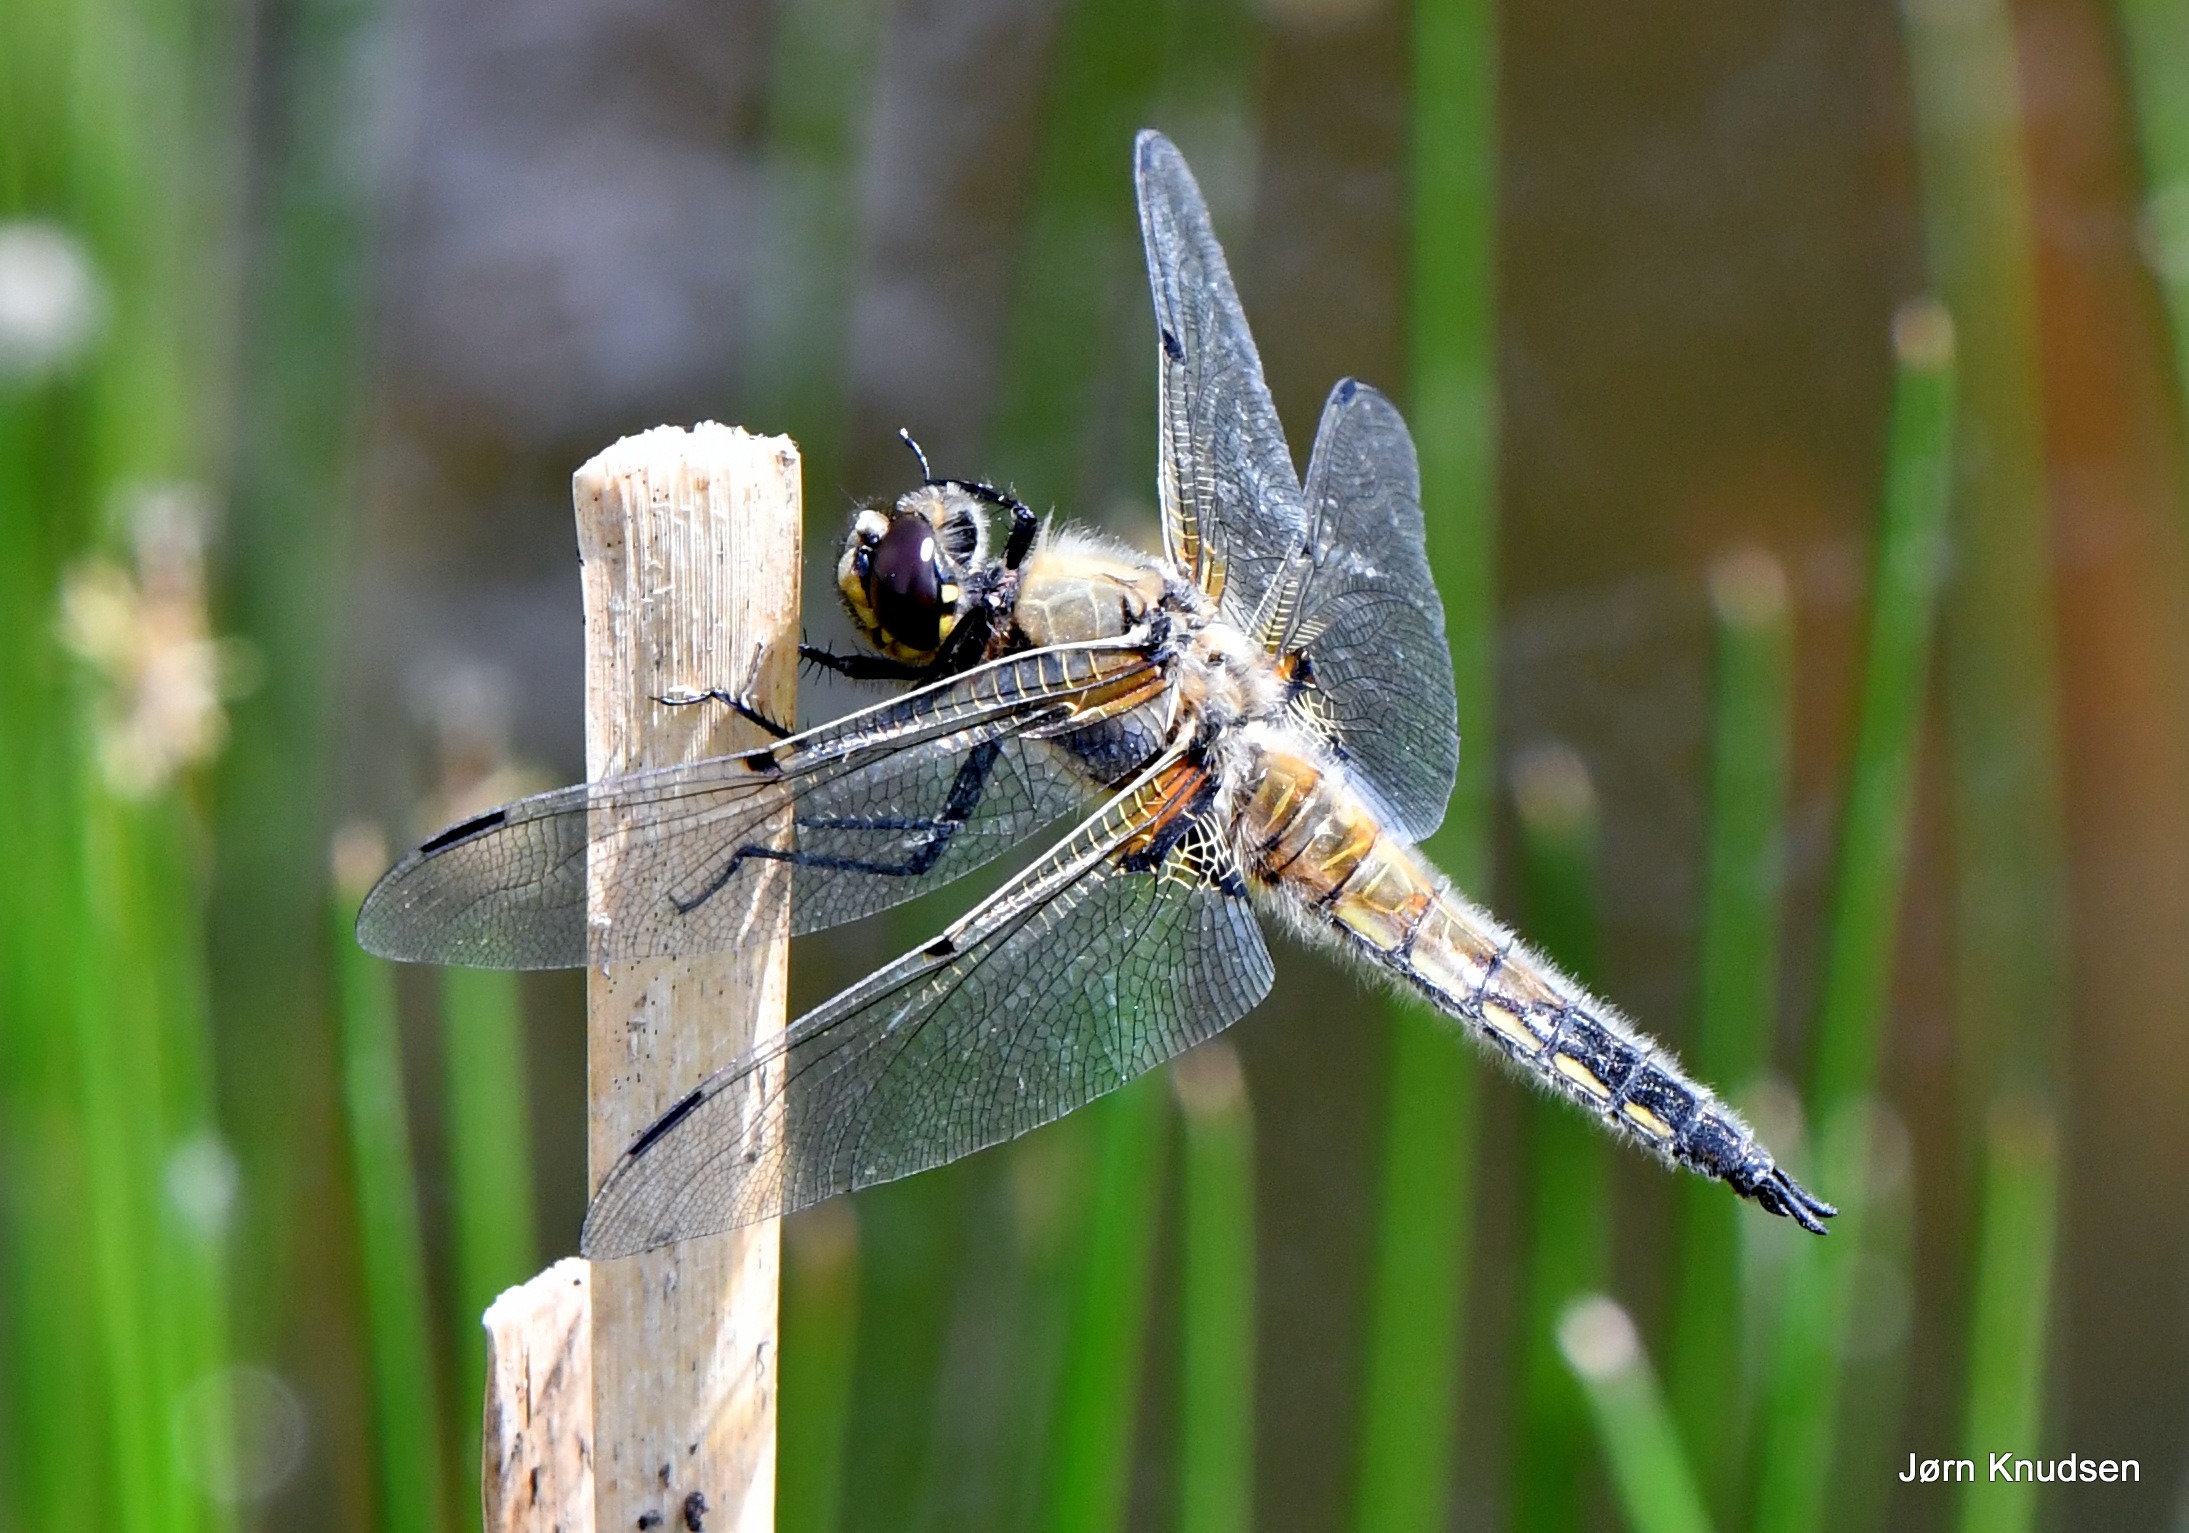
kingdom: Animalia
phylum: Arthropoda
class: Insecta
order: Odonata
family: Libellulidae
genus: Libellula
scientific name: Libellula quadrimaculata
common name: Fireplettet libel
